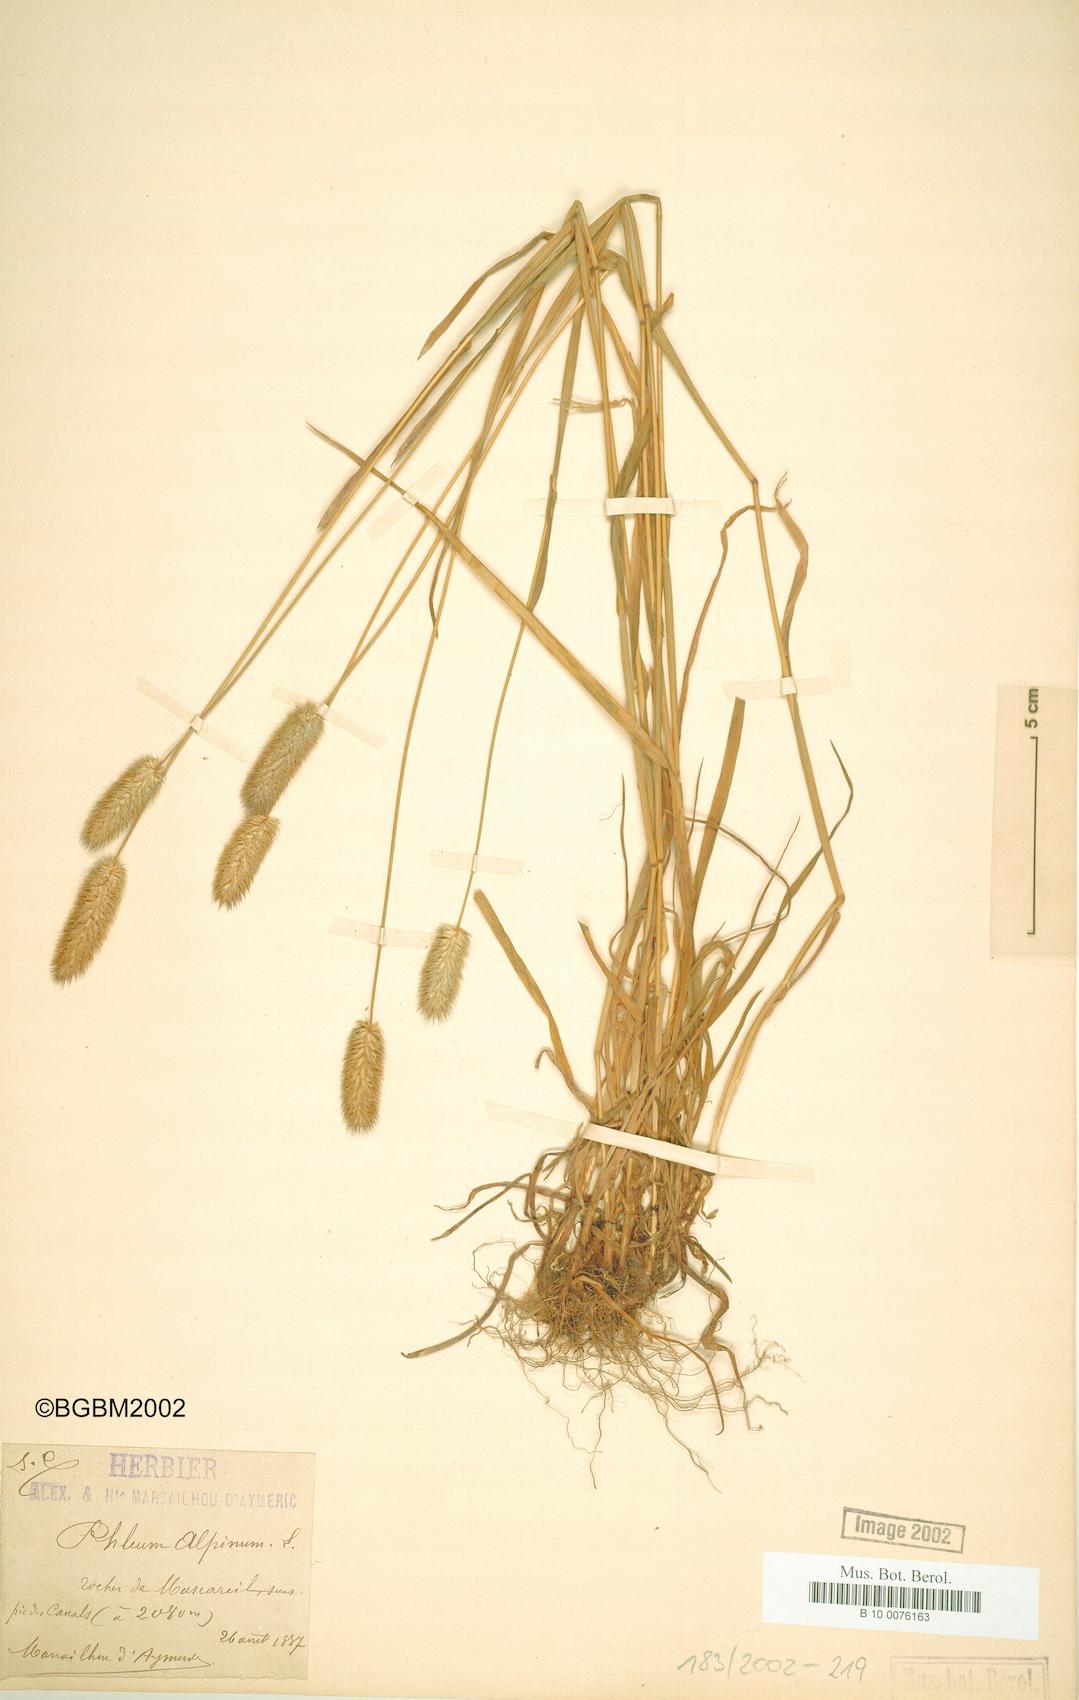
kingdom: Plantae
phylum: Tracheophyta
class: Liliopsida
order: Poales
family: Poaceae
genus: Phleum
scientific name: Phleum alpinum
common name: Alpine cat's-tail
